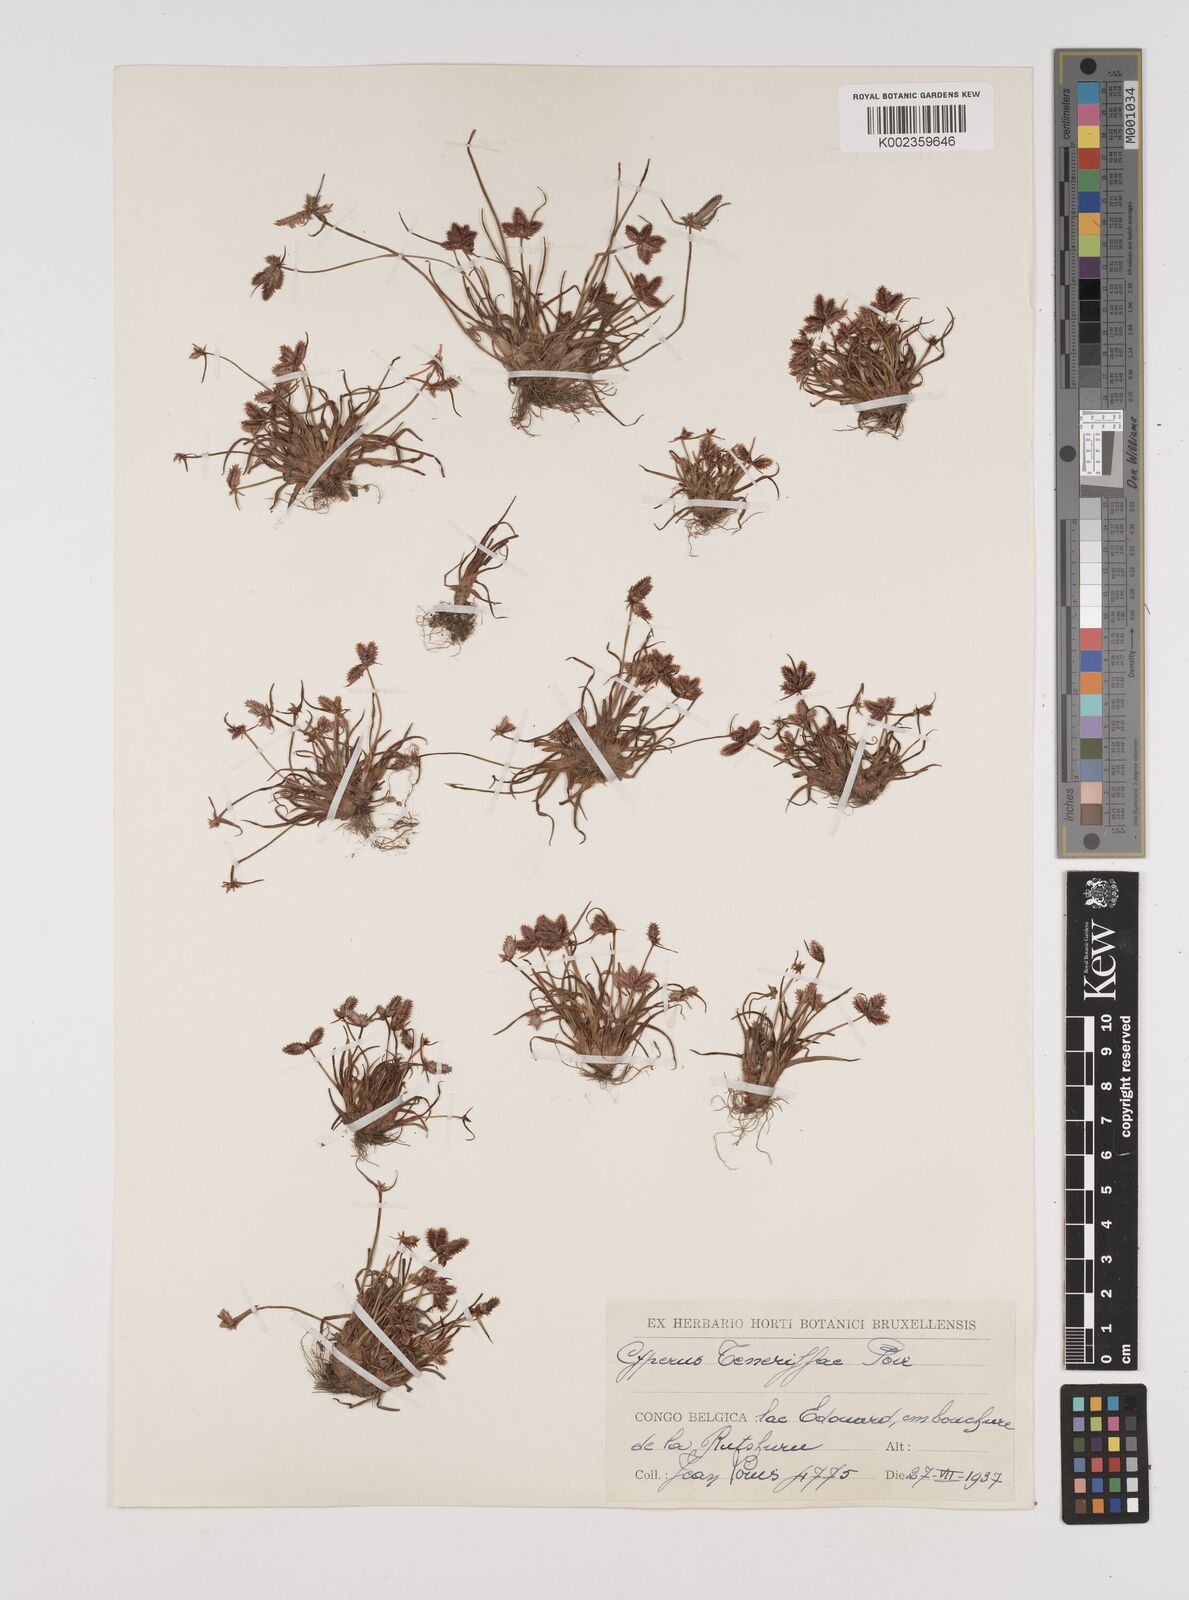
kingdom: Plantae
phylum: Tracheophyta
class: Liliopsida
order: Poales
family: Cyperaceae
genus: Cyperus
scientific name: Cyperus rubicundus
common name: Coco-grass
